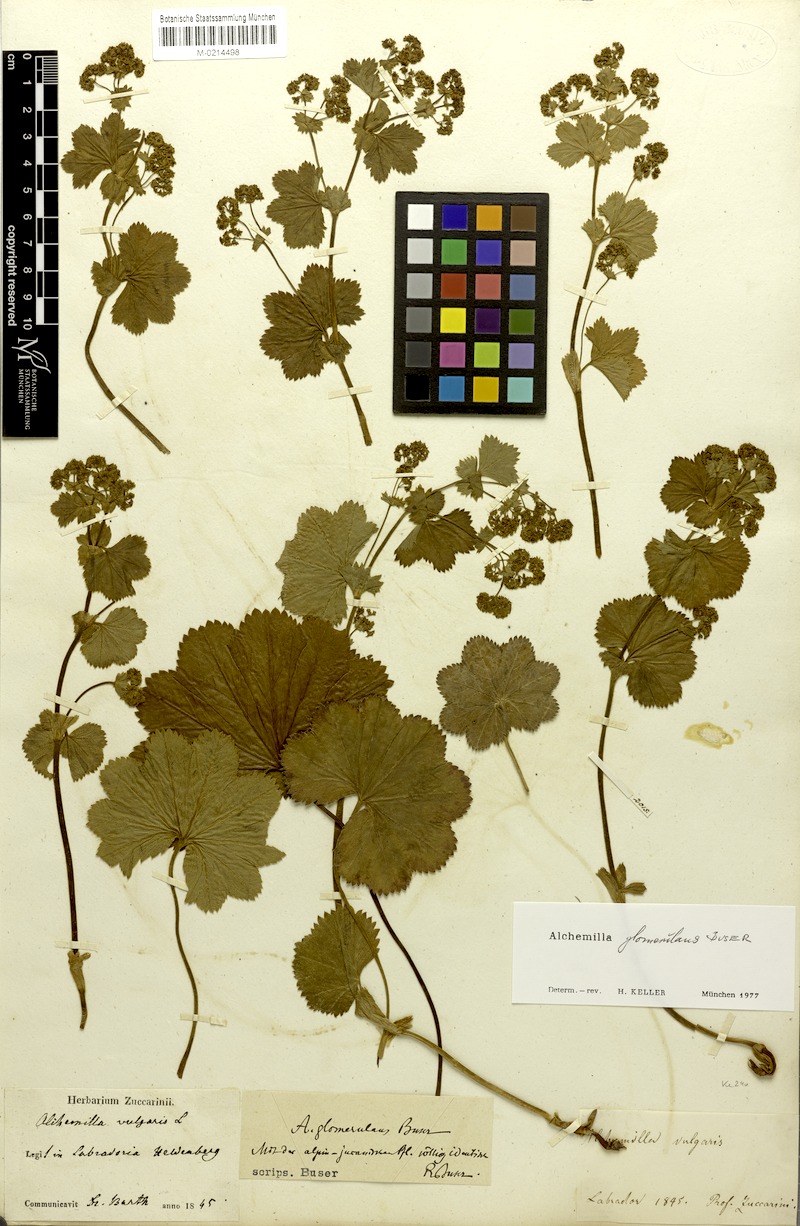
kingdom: Plantae
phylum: Tracheophyta
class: Magnoliopsida
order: Rosales
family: Rosaceae
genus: Alchemilla
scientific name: Alchemilla glomerulans
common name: Clustered lady's mantle
